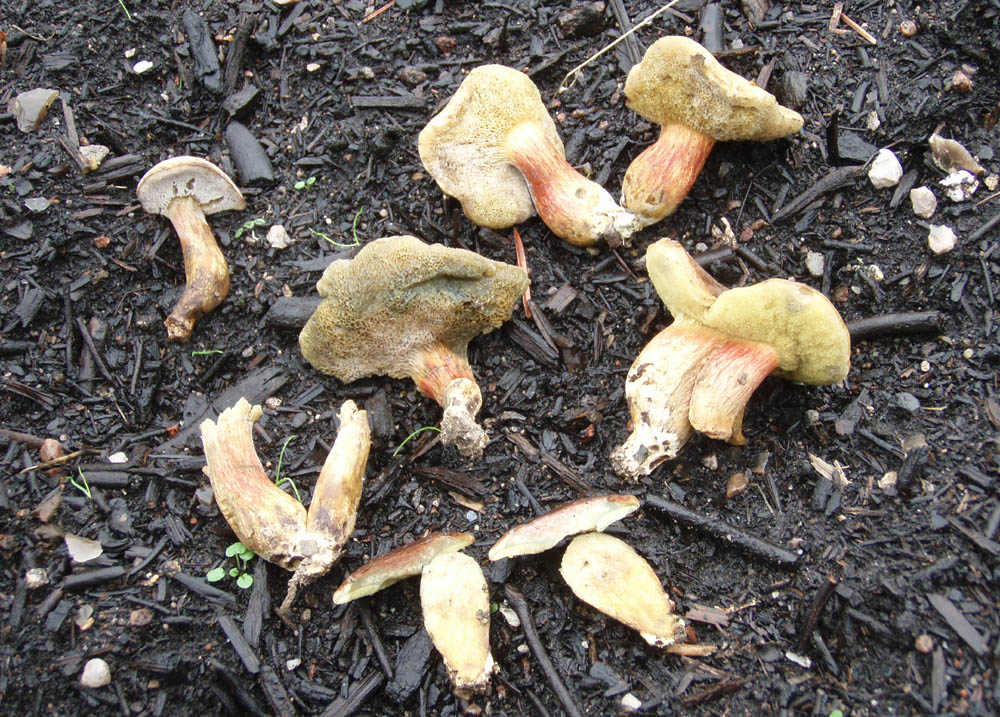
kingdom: Fungi
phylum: Basidiomycota
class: Agaricomycetes
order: Boletales
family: Boletaceae
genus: Hortiboletus
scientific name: Hortiboletus bubalinus
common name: aurora-rørhat
